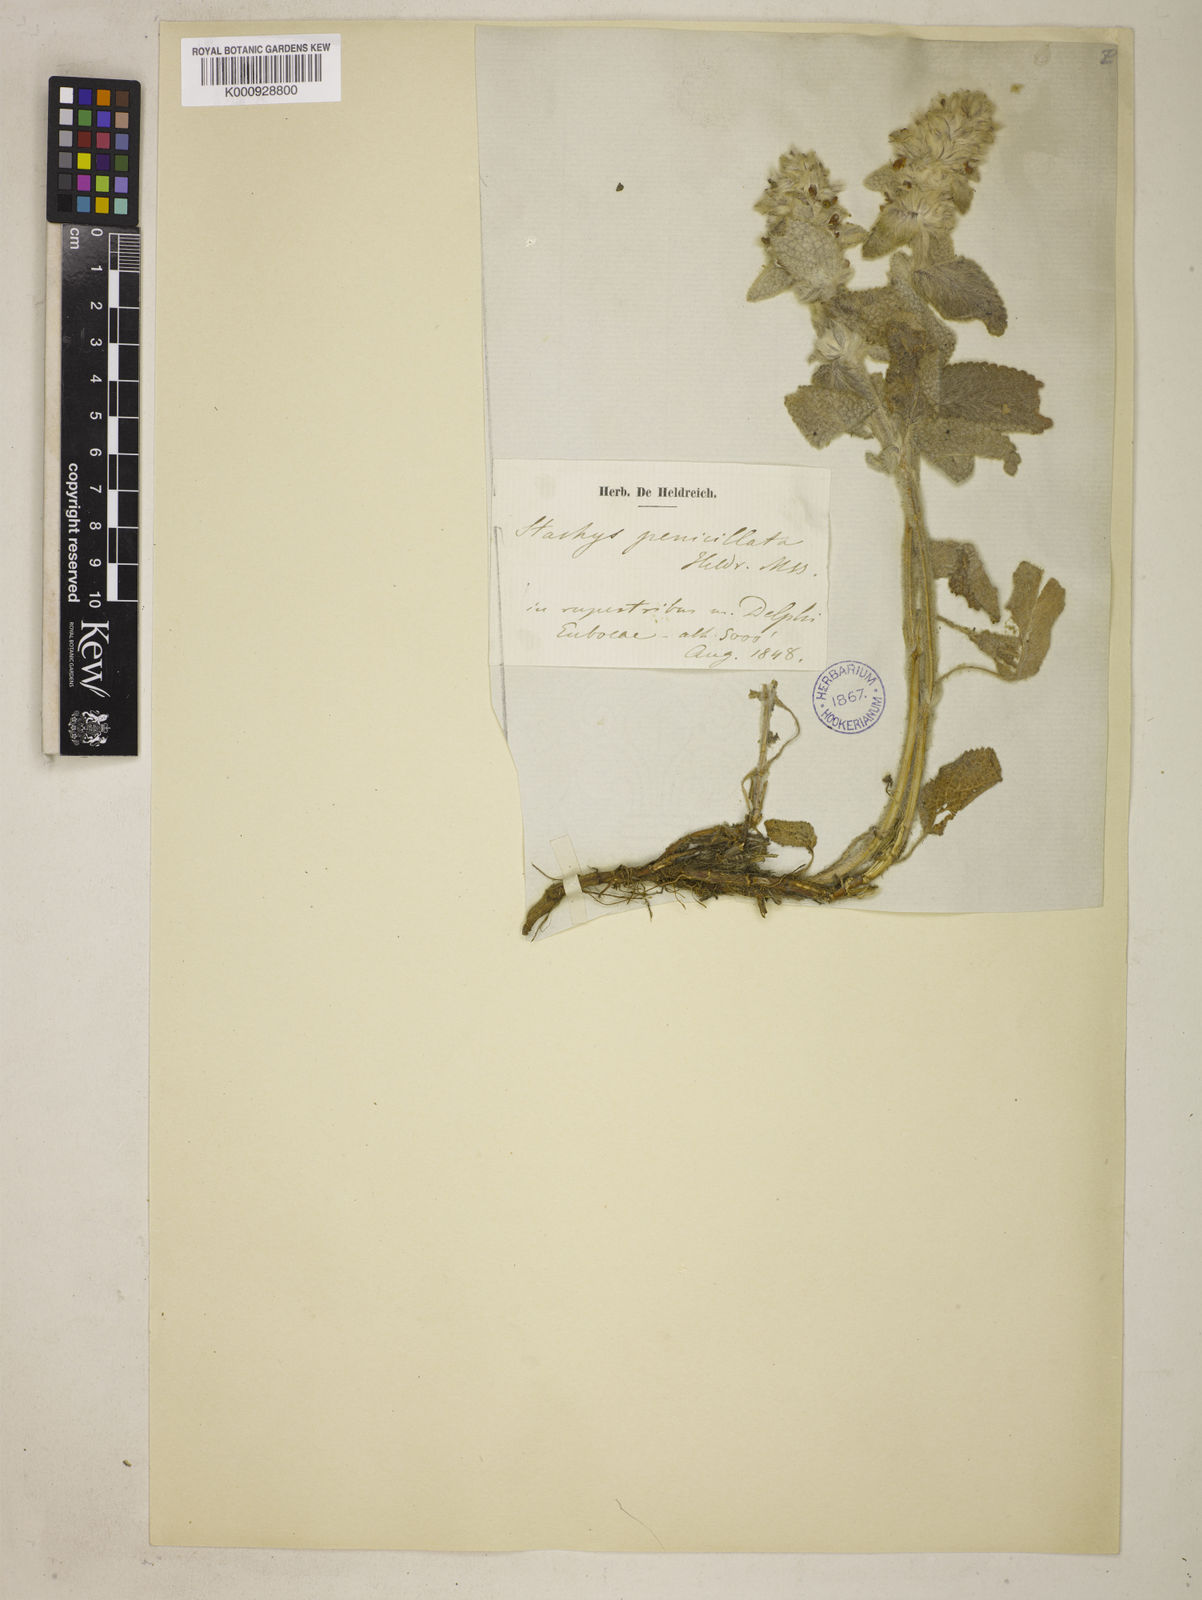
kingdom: Plantae
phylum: Tracheophyta
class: Magnoliopsida
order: Lamiales
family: Lamiaceae
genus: Stachys
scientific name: Stachys germanica
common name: Downy woundwort
